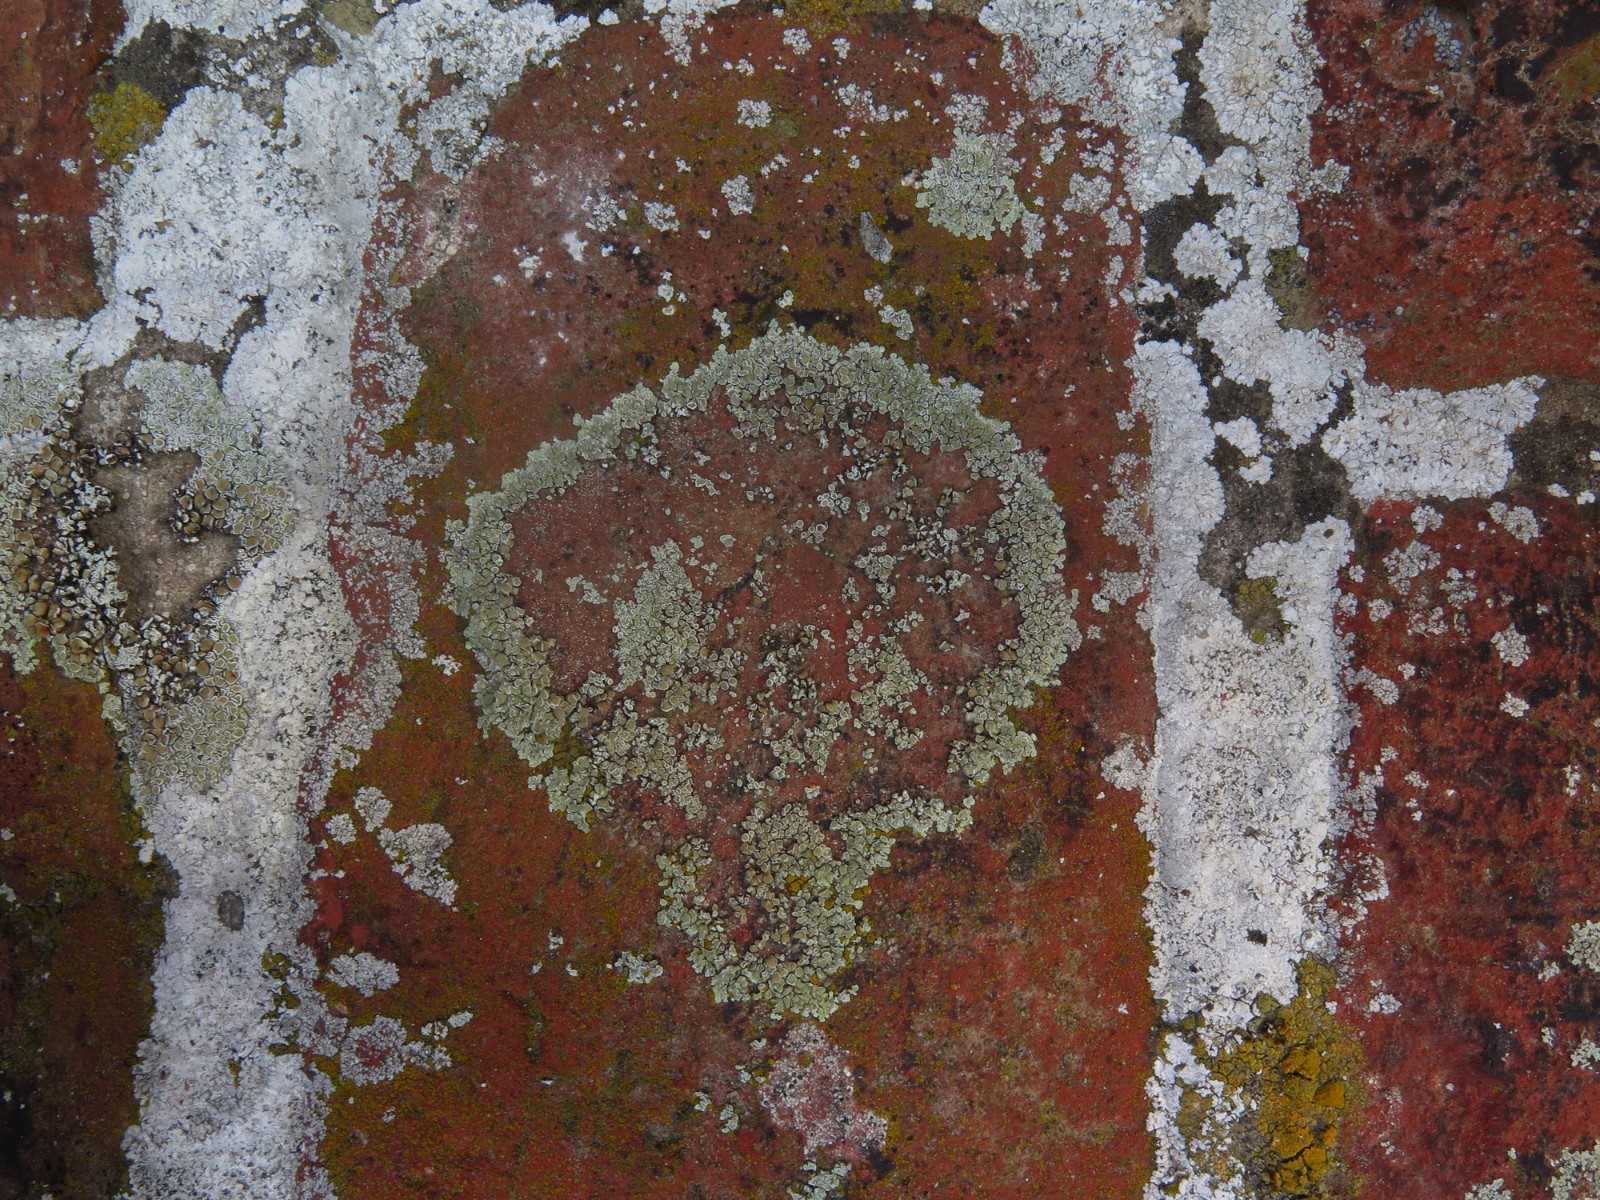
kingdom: Fungi
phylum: Ascomycota
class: Lecanoromycetes
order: Lecanorales
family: Lecanoraceae
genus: Protoparmeliopsis
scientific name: Protoparmeliopsis muralis
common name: randfliget kantskivelav
